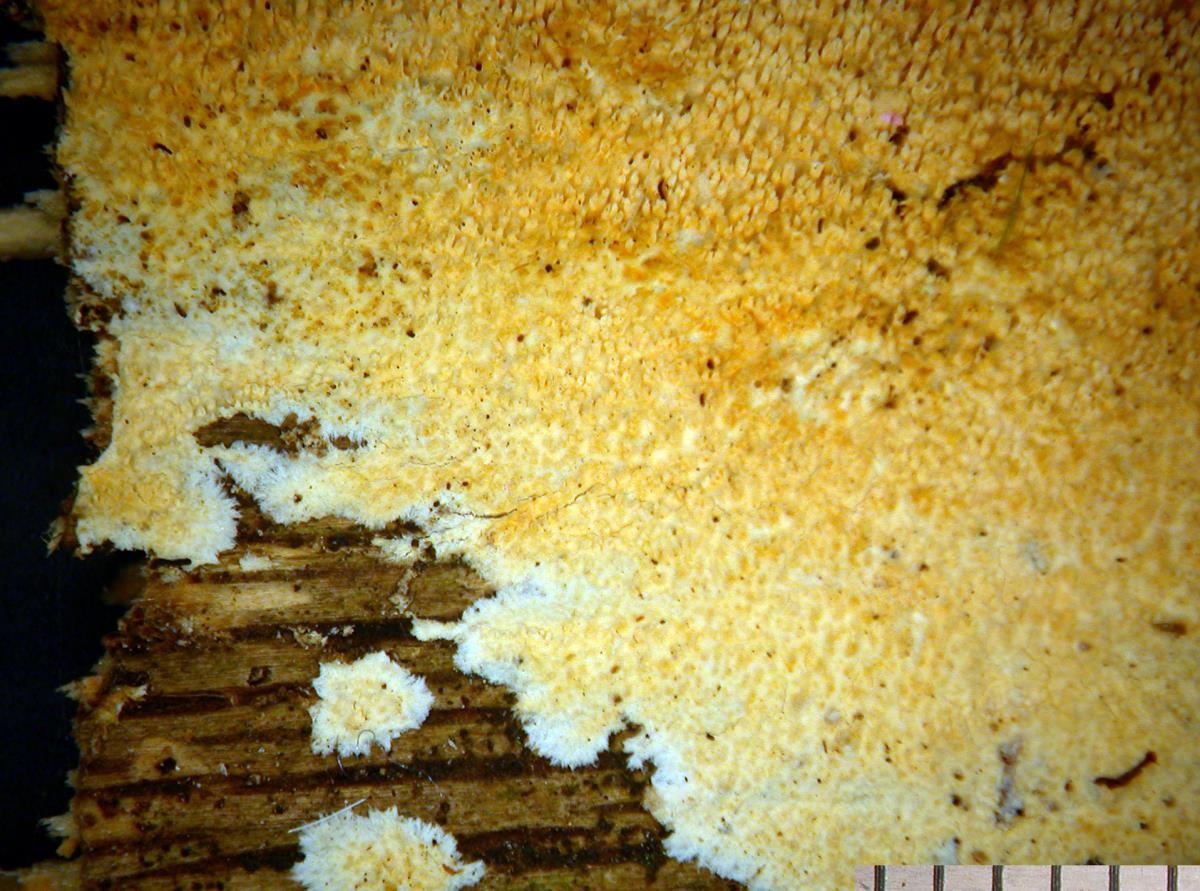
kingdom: Fungi
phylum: Basidiomycota
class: Agaricomycetes
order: Polyporales
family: Meruliaceae
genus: Mycoacia
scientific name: Mycoacia nothofagi
